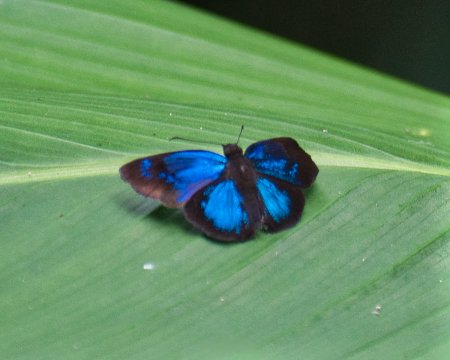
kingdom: Animalia
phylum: Arthropoda
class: Insecta
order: Lepidoptera
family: Hesperiidae
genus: Paches
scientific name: Paches loxus
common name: Glorious Blue-Skipper
